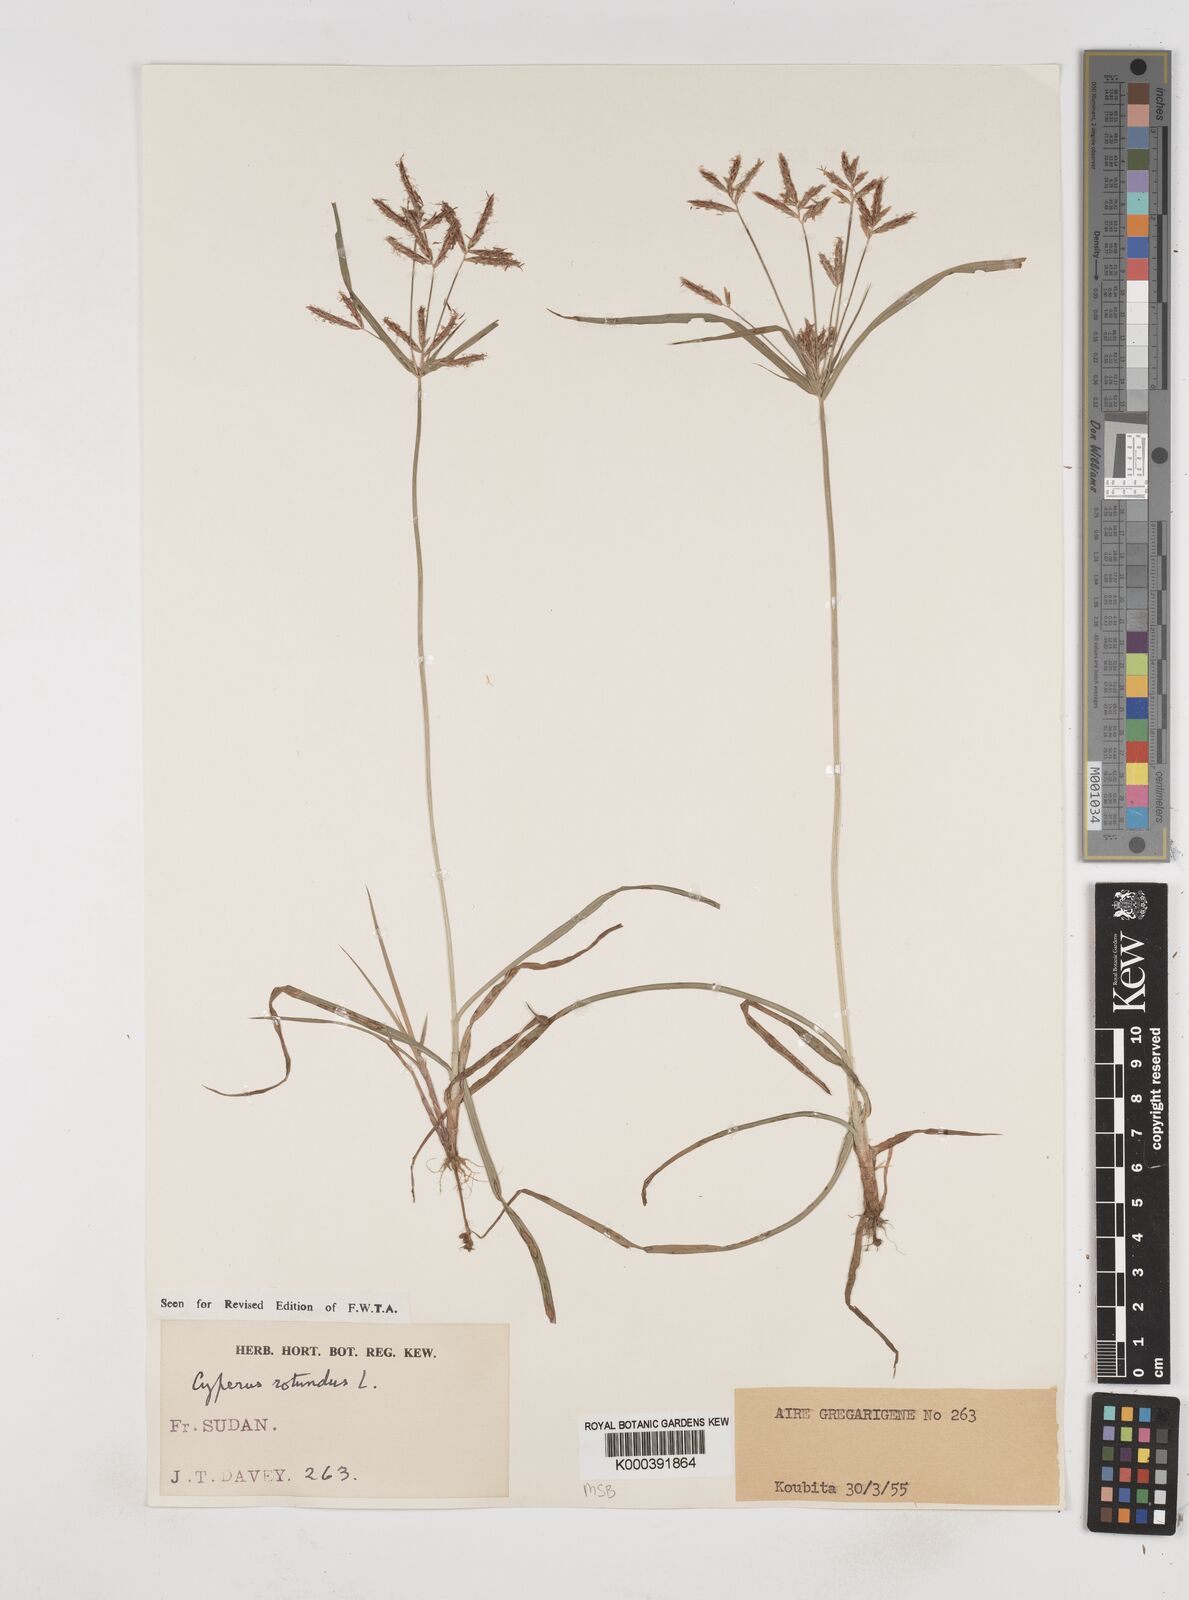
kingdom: Plantae
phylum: Tracheophyta
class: Liliopsida
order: Poales
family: Cyperaceae
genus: Cyperus
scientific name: Cyperus rotundus
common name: Nutgrass
